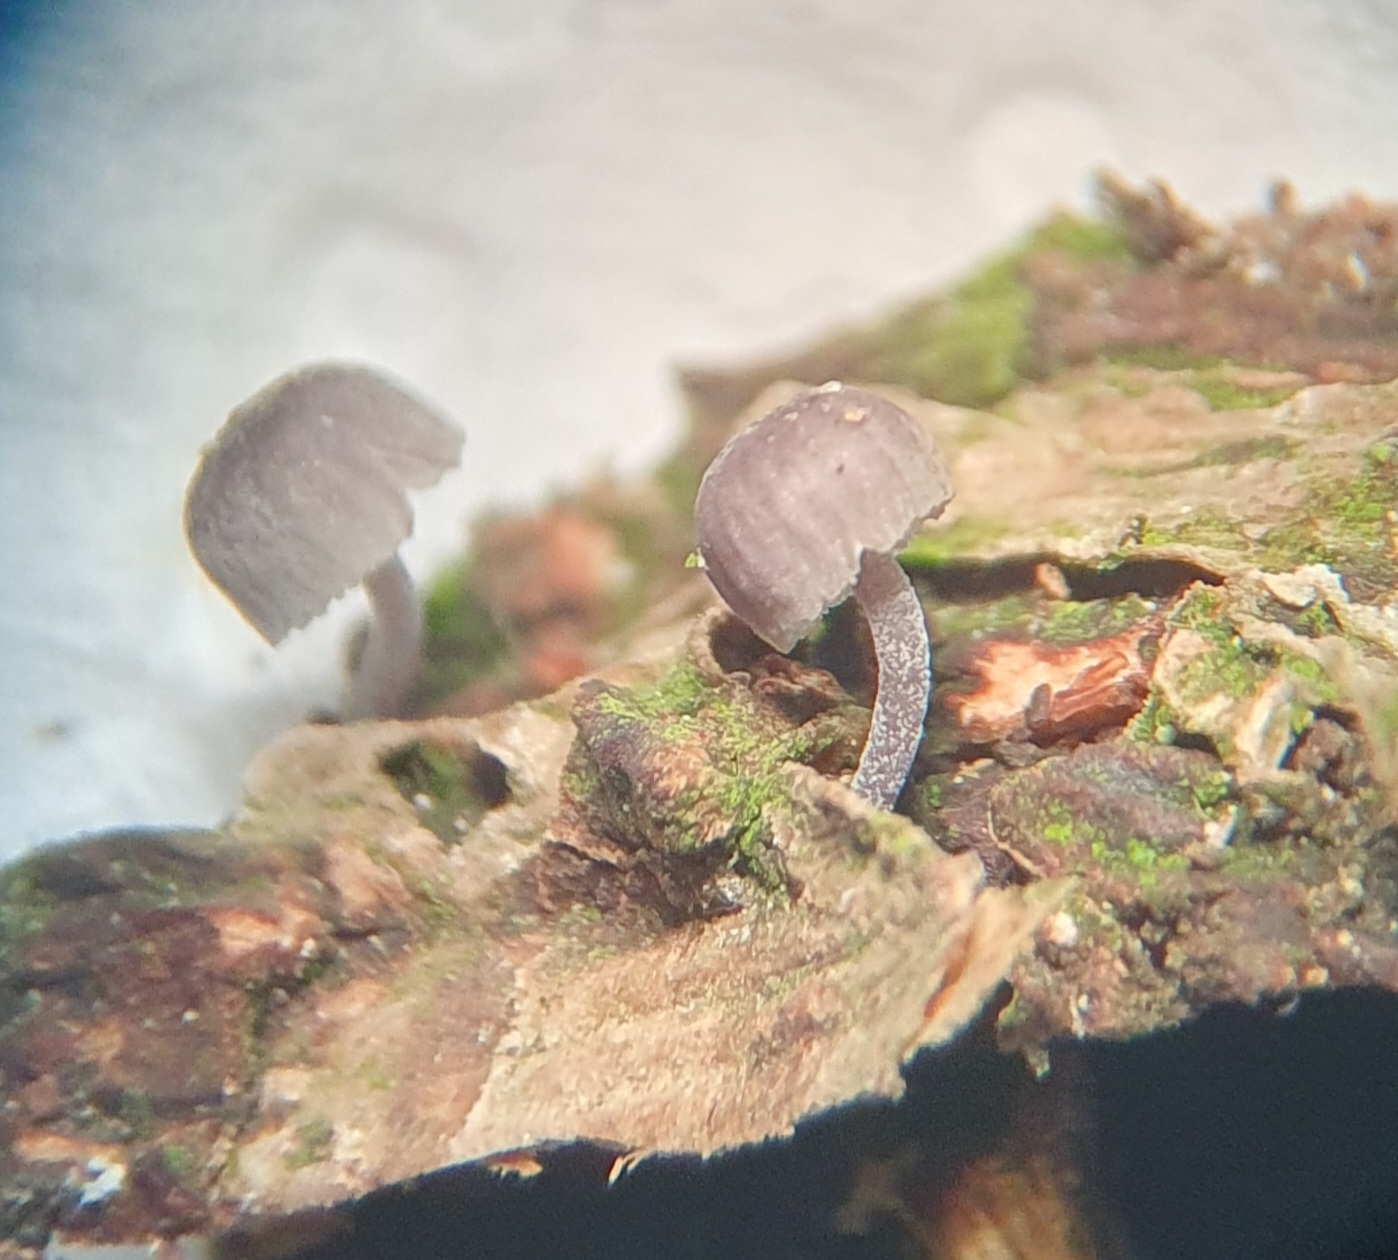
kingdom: Fungi
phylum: Basidiomycota
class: Agaricomycetes
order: Agaricales
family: Mycenaceae
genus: Mycena
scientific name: Mycena pseudocorticola
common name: gråblå bark-huesvamp
